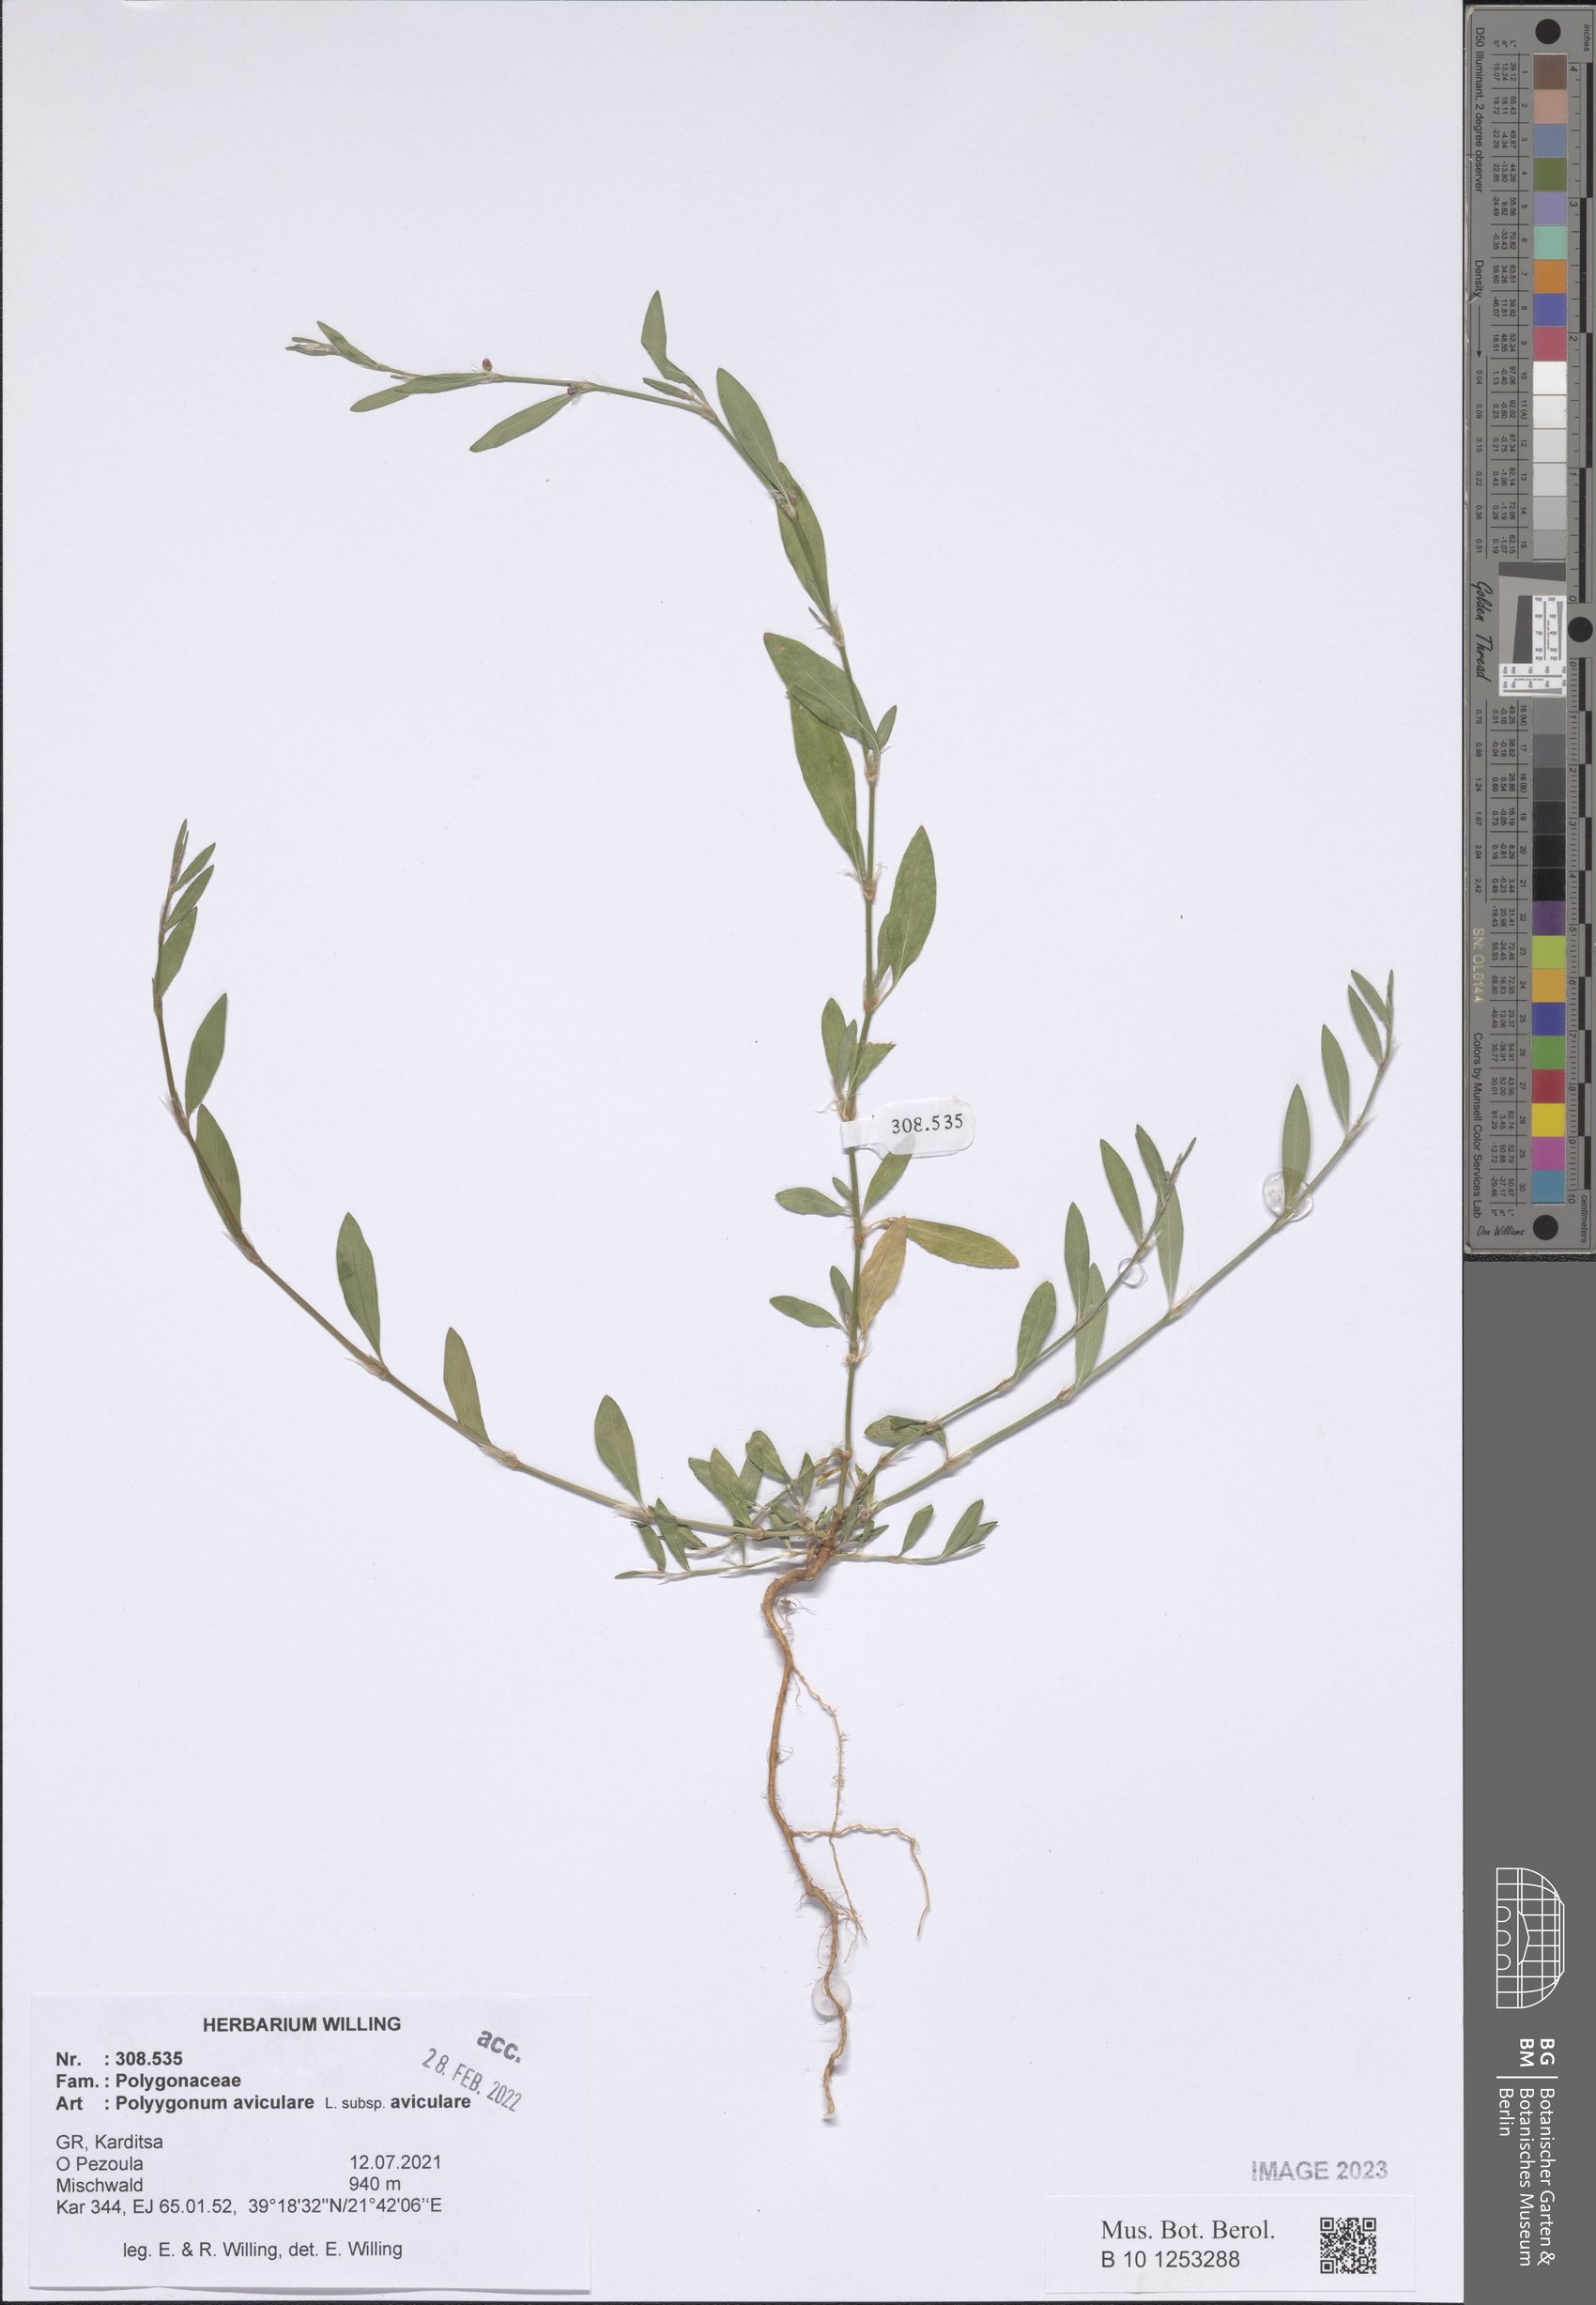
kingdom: Plantae
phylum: Tracheophyta
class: Magnoliopsida
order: Caryophyllales
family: Polygonaceae
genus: Polygonum
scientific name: Polygonum aviculare
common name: Prostrate knotweed
